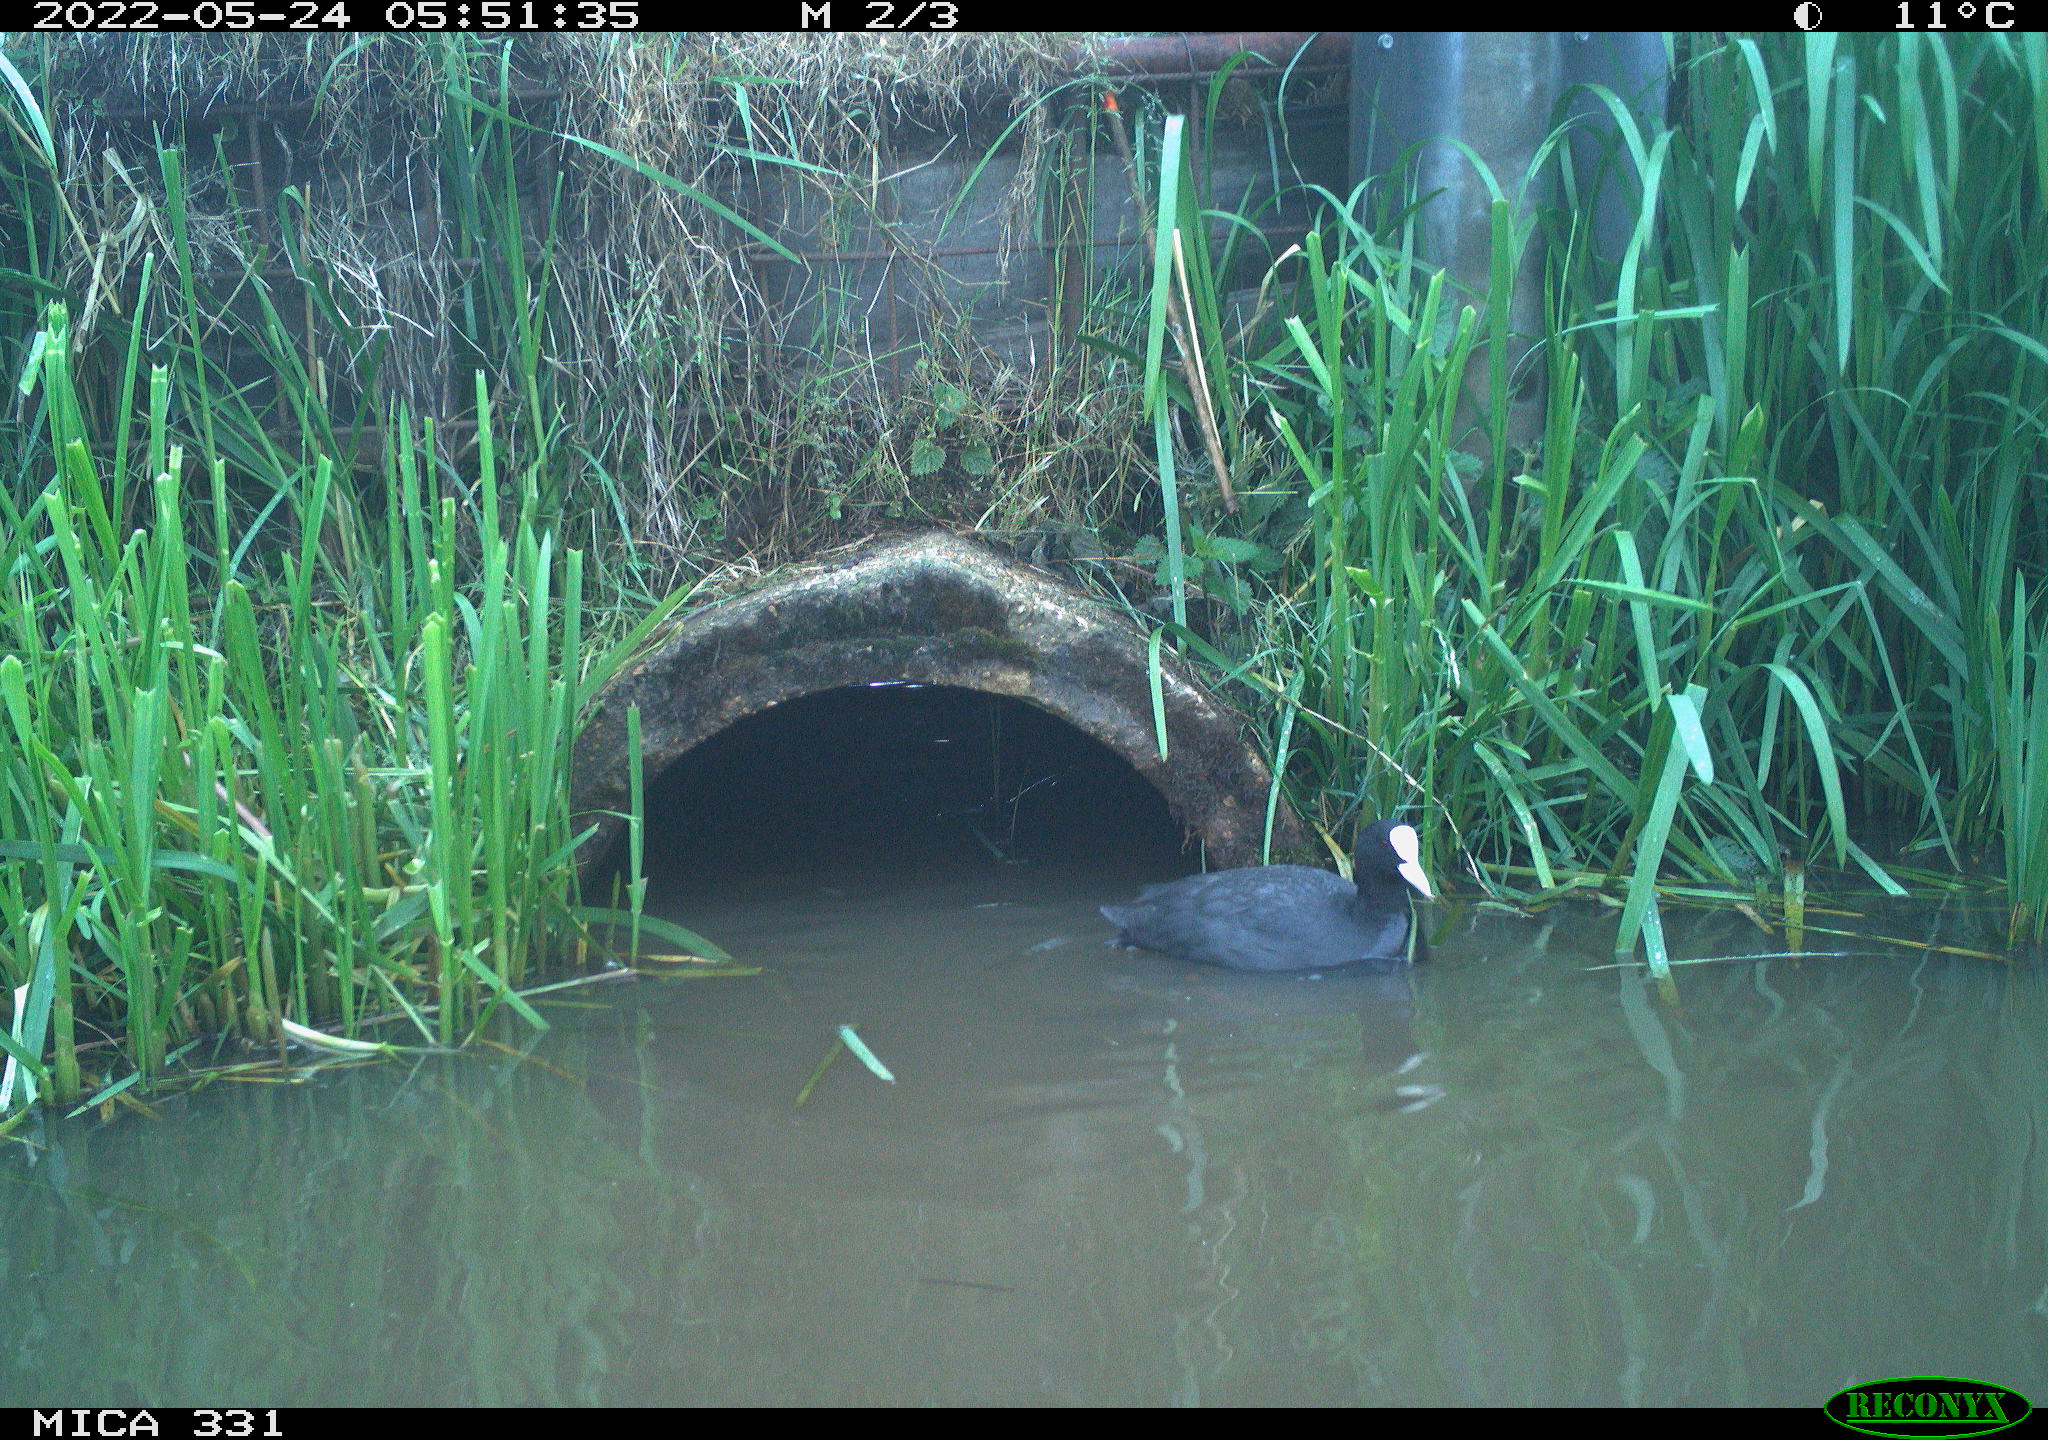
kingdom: Animalia
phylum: Chordata
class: Aves
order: Gruiformes
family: Rallidae
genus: Fulica
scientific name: Fulica atra
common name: Eurasian coot
